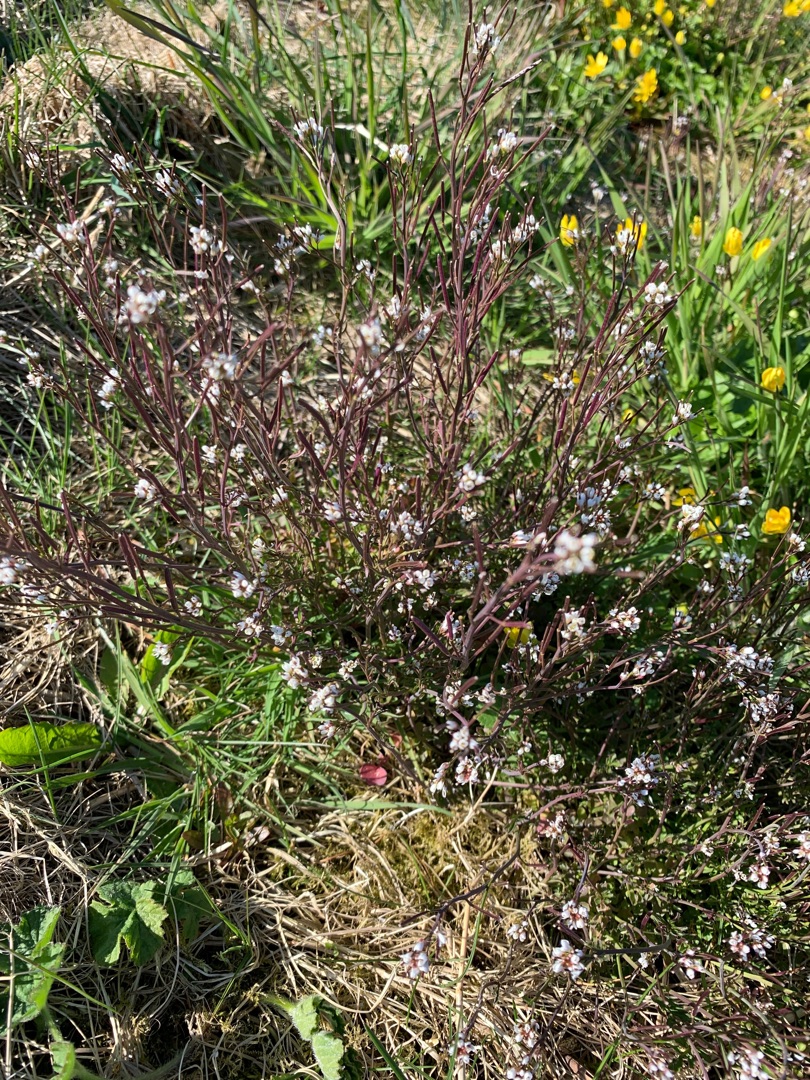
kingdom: Plantae
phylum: Tracheophyta
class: Magnoliopsida
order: Brassicales
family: Brassicaceae
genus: Cardamine
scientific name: Cardamine hirsuta
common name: Roset-springklap
